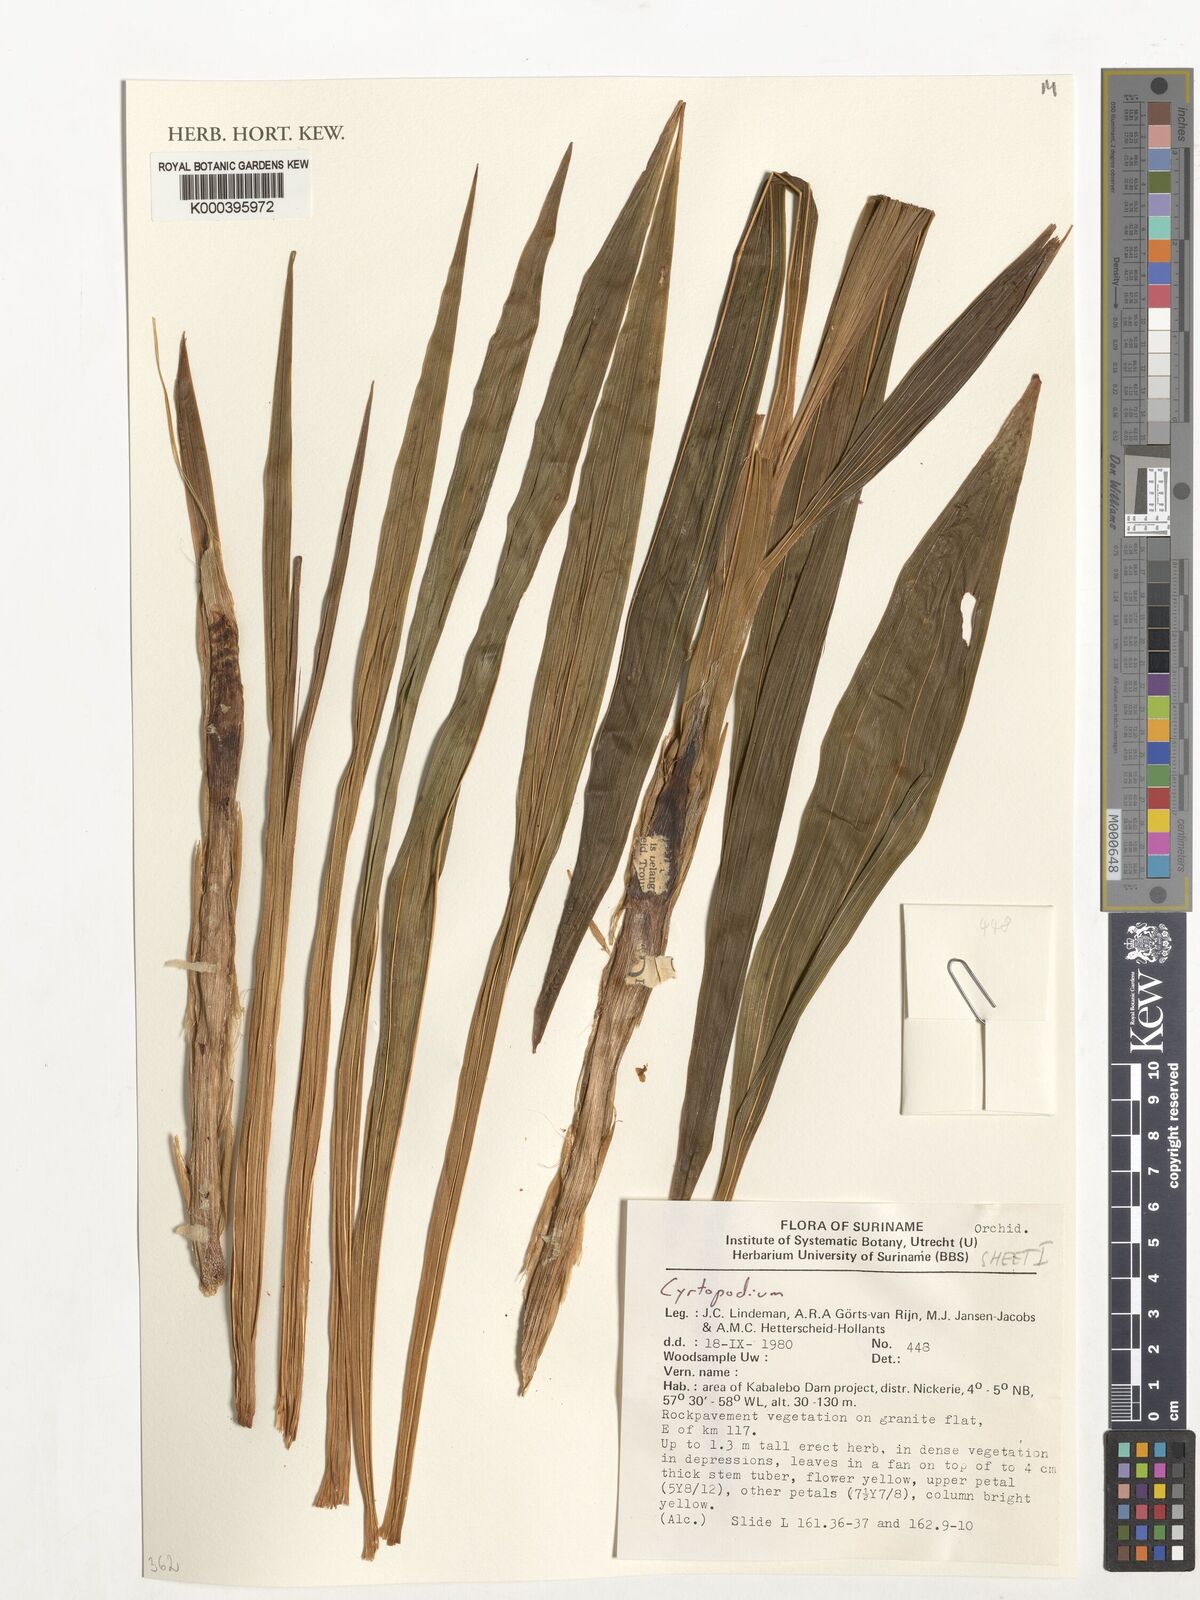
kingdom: Plantae
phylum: Tracheophyta
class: Liliopsida
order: Asparagales
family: Orchidaceae
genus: Cyrtopodium
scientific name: Cyrtopodium
